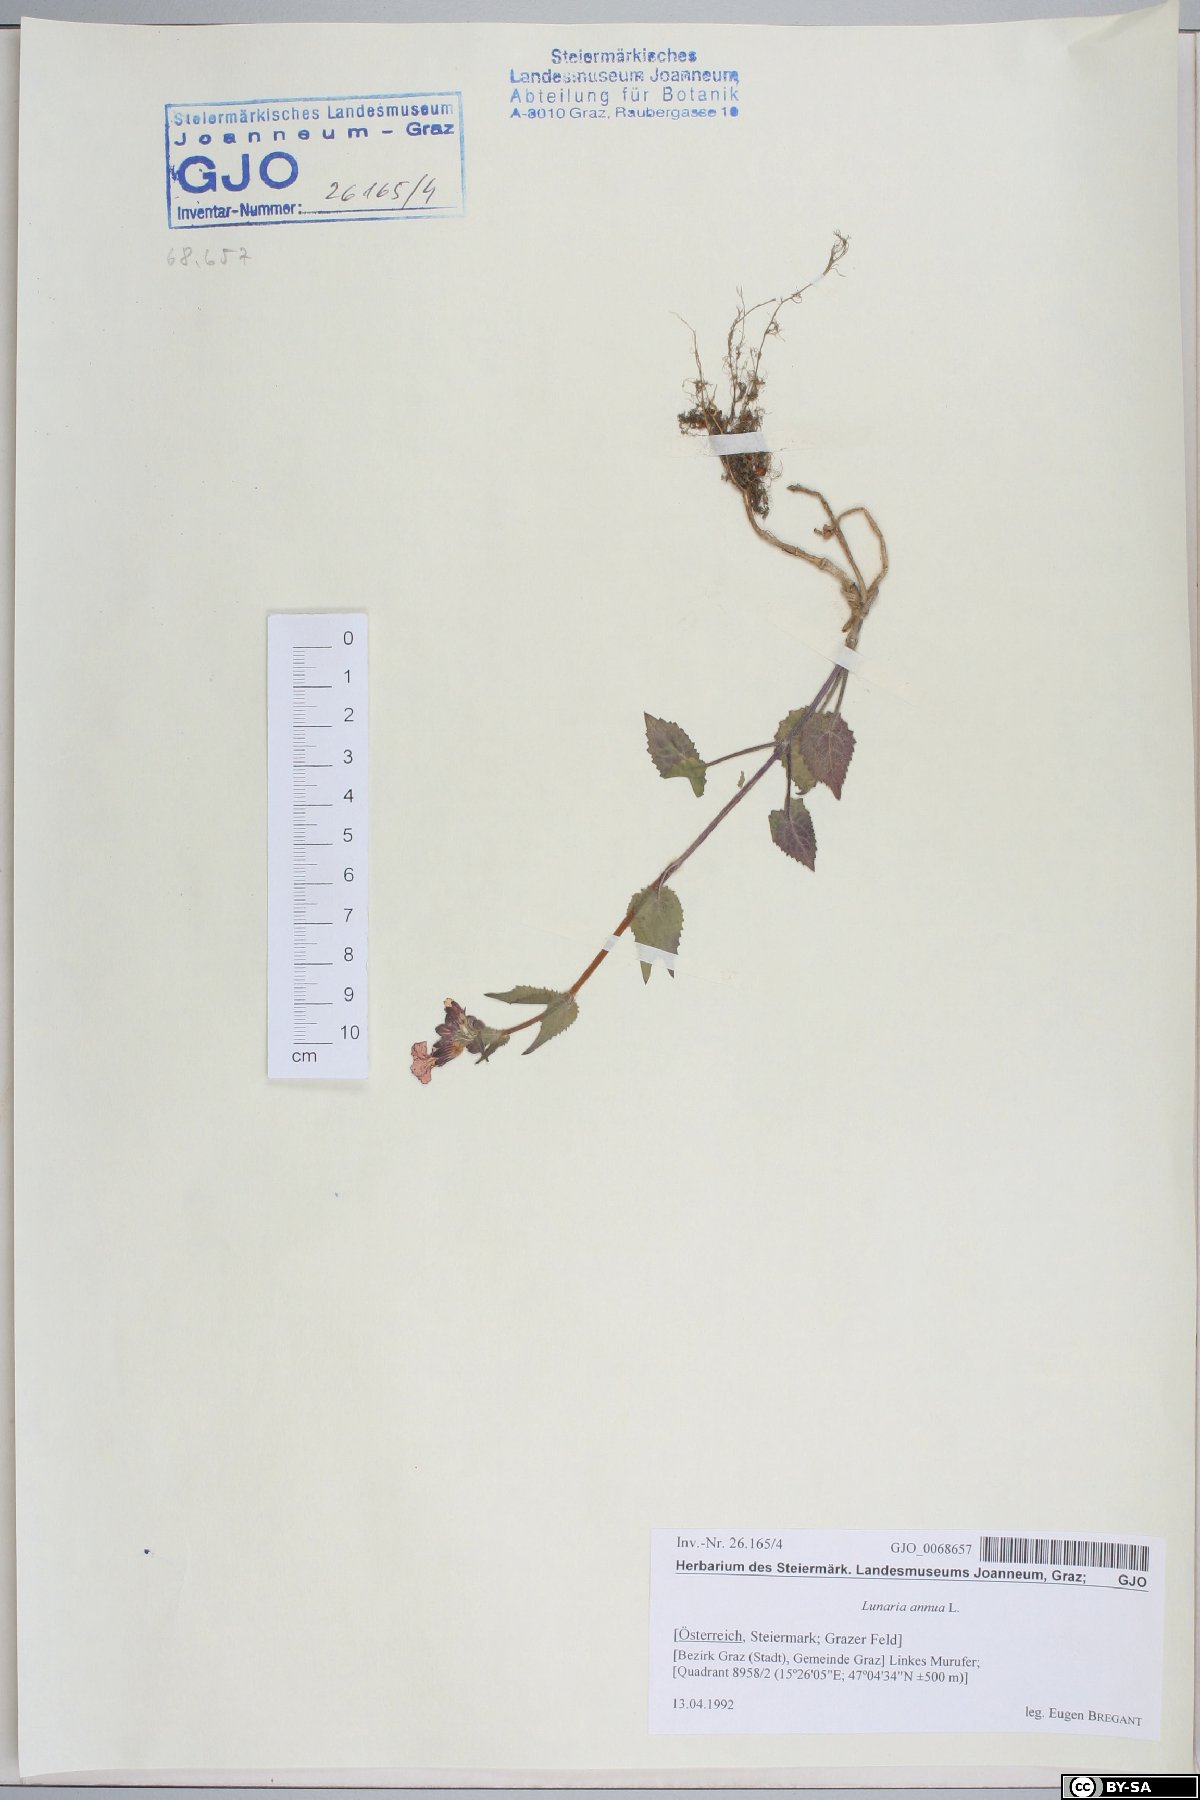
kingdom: Plantae
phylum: Tracheophyta
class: Magnoliopsida
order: Brassicales
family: Brassicaceae
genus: Lunaria
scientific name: Lunaria annua
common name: Honesty
